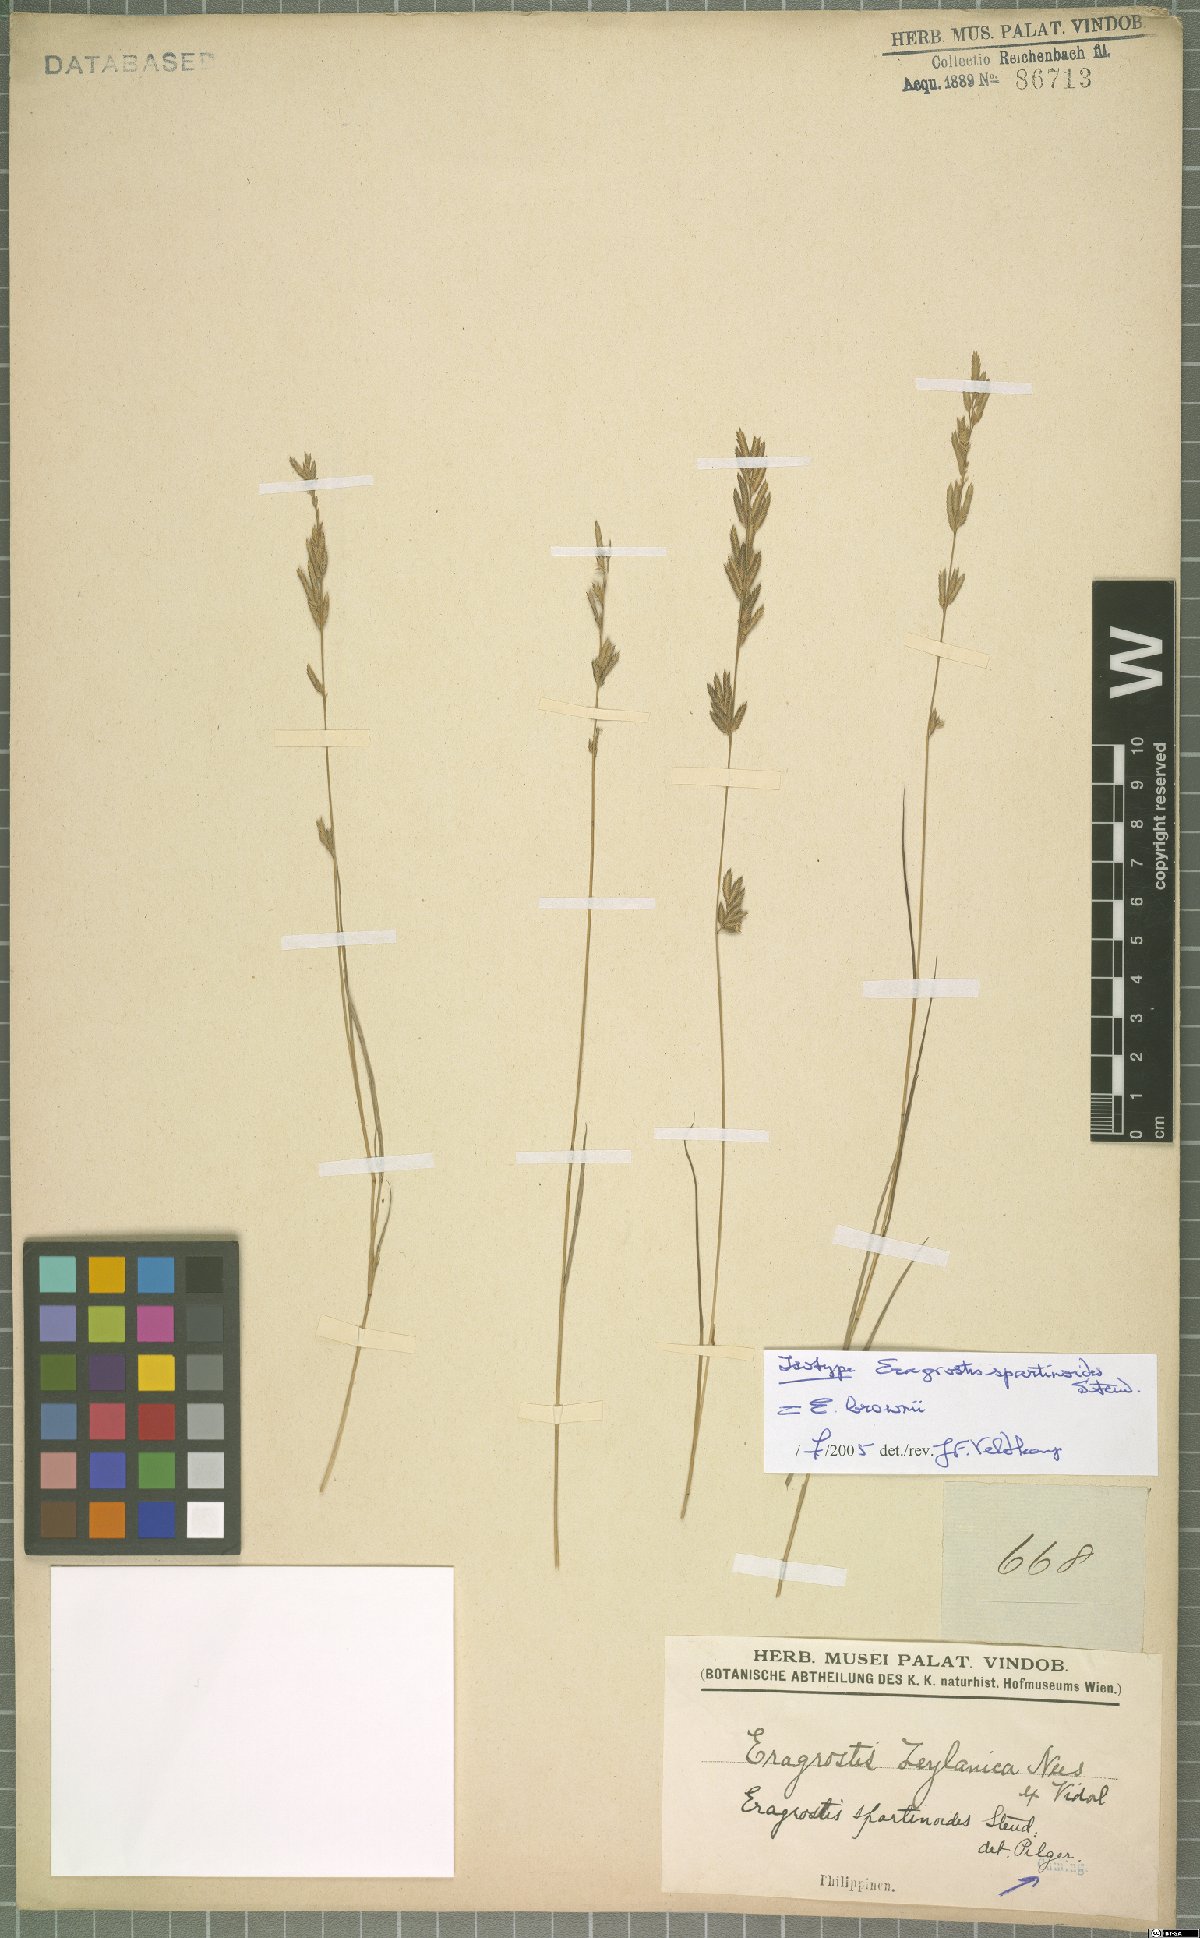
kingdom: Plantae
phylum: Tracheophyta
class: Liliopsida
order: Poales
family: Poaceae
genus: Eragrostis
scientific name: Eragrostis brownii
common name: Lovegrass
